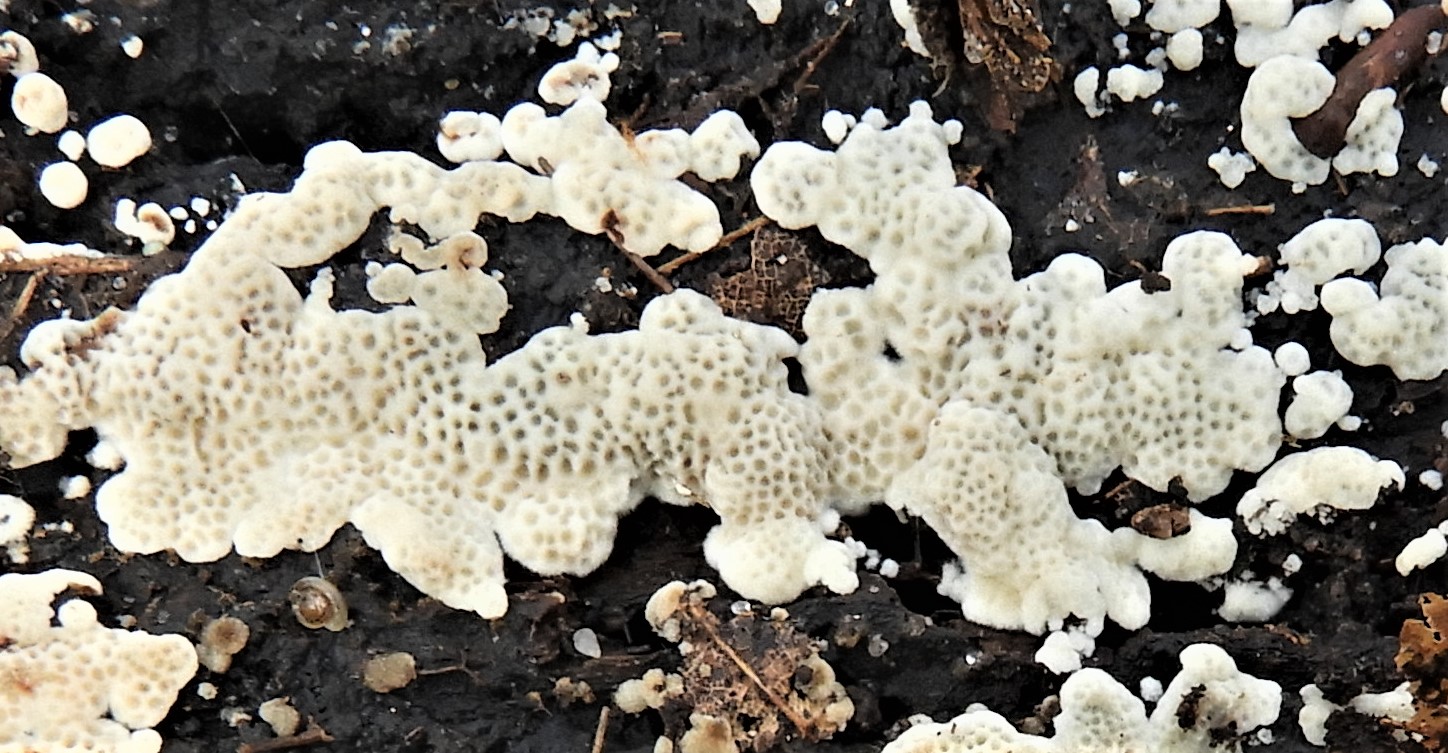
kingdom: Fungi
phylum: Basidiomycota
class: Agaricomycetes
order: Polyporales
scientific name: Polyporales
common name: poresvampordenen
